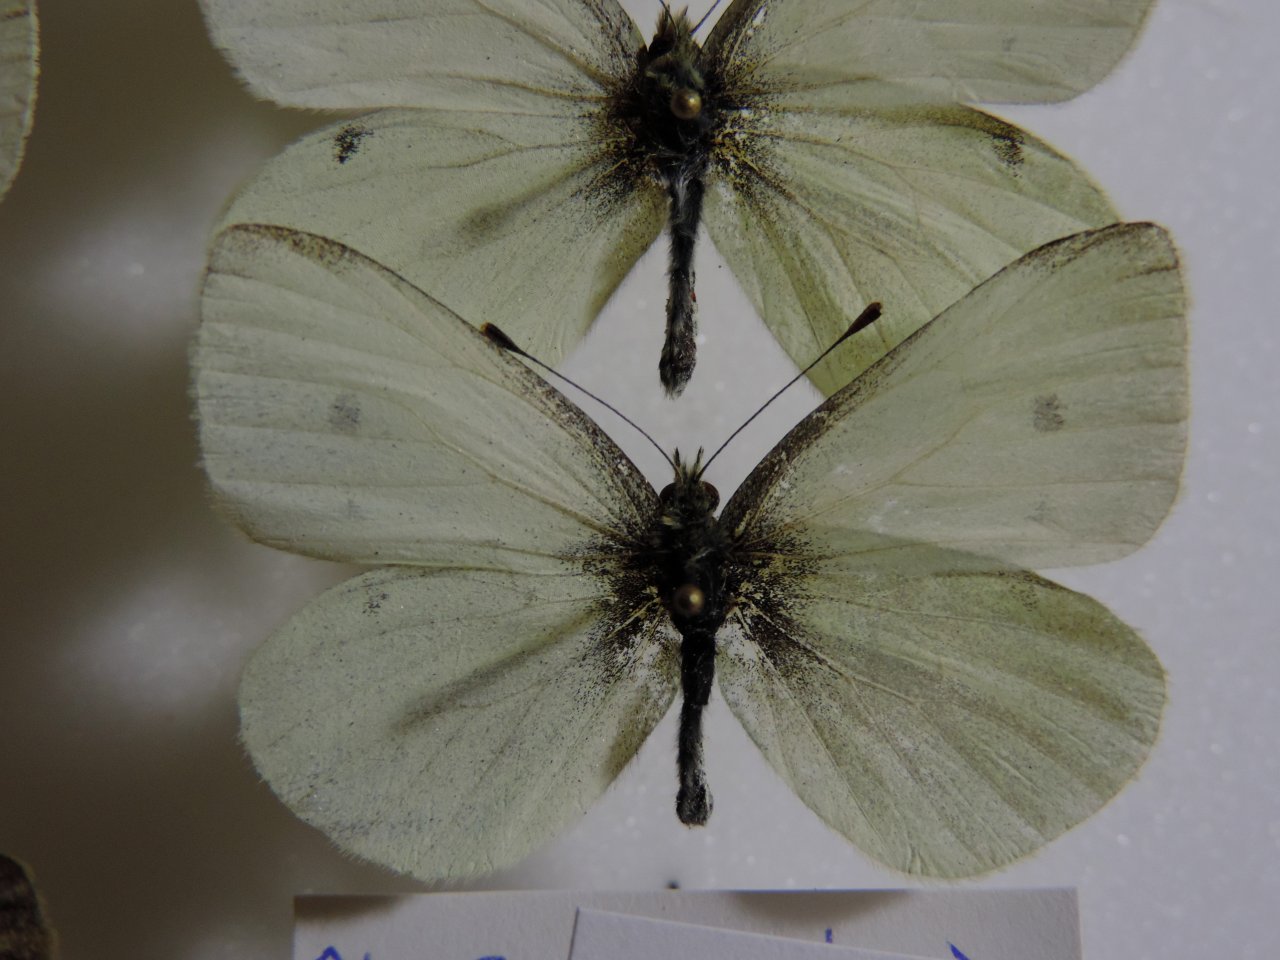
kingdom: Animalia
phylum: Arthropoda
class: Insecta
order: Lepidoptera
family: Pieridae
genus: Pieris
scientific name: Pieris rapae
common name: Cabbage White
